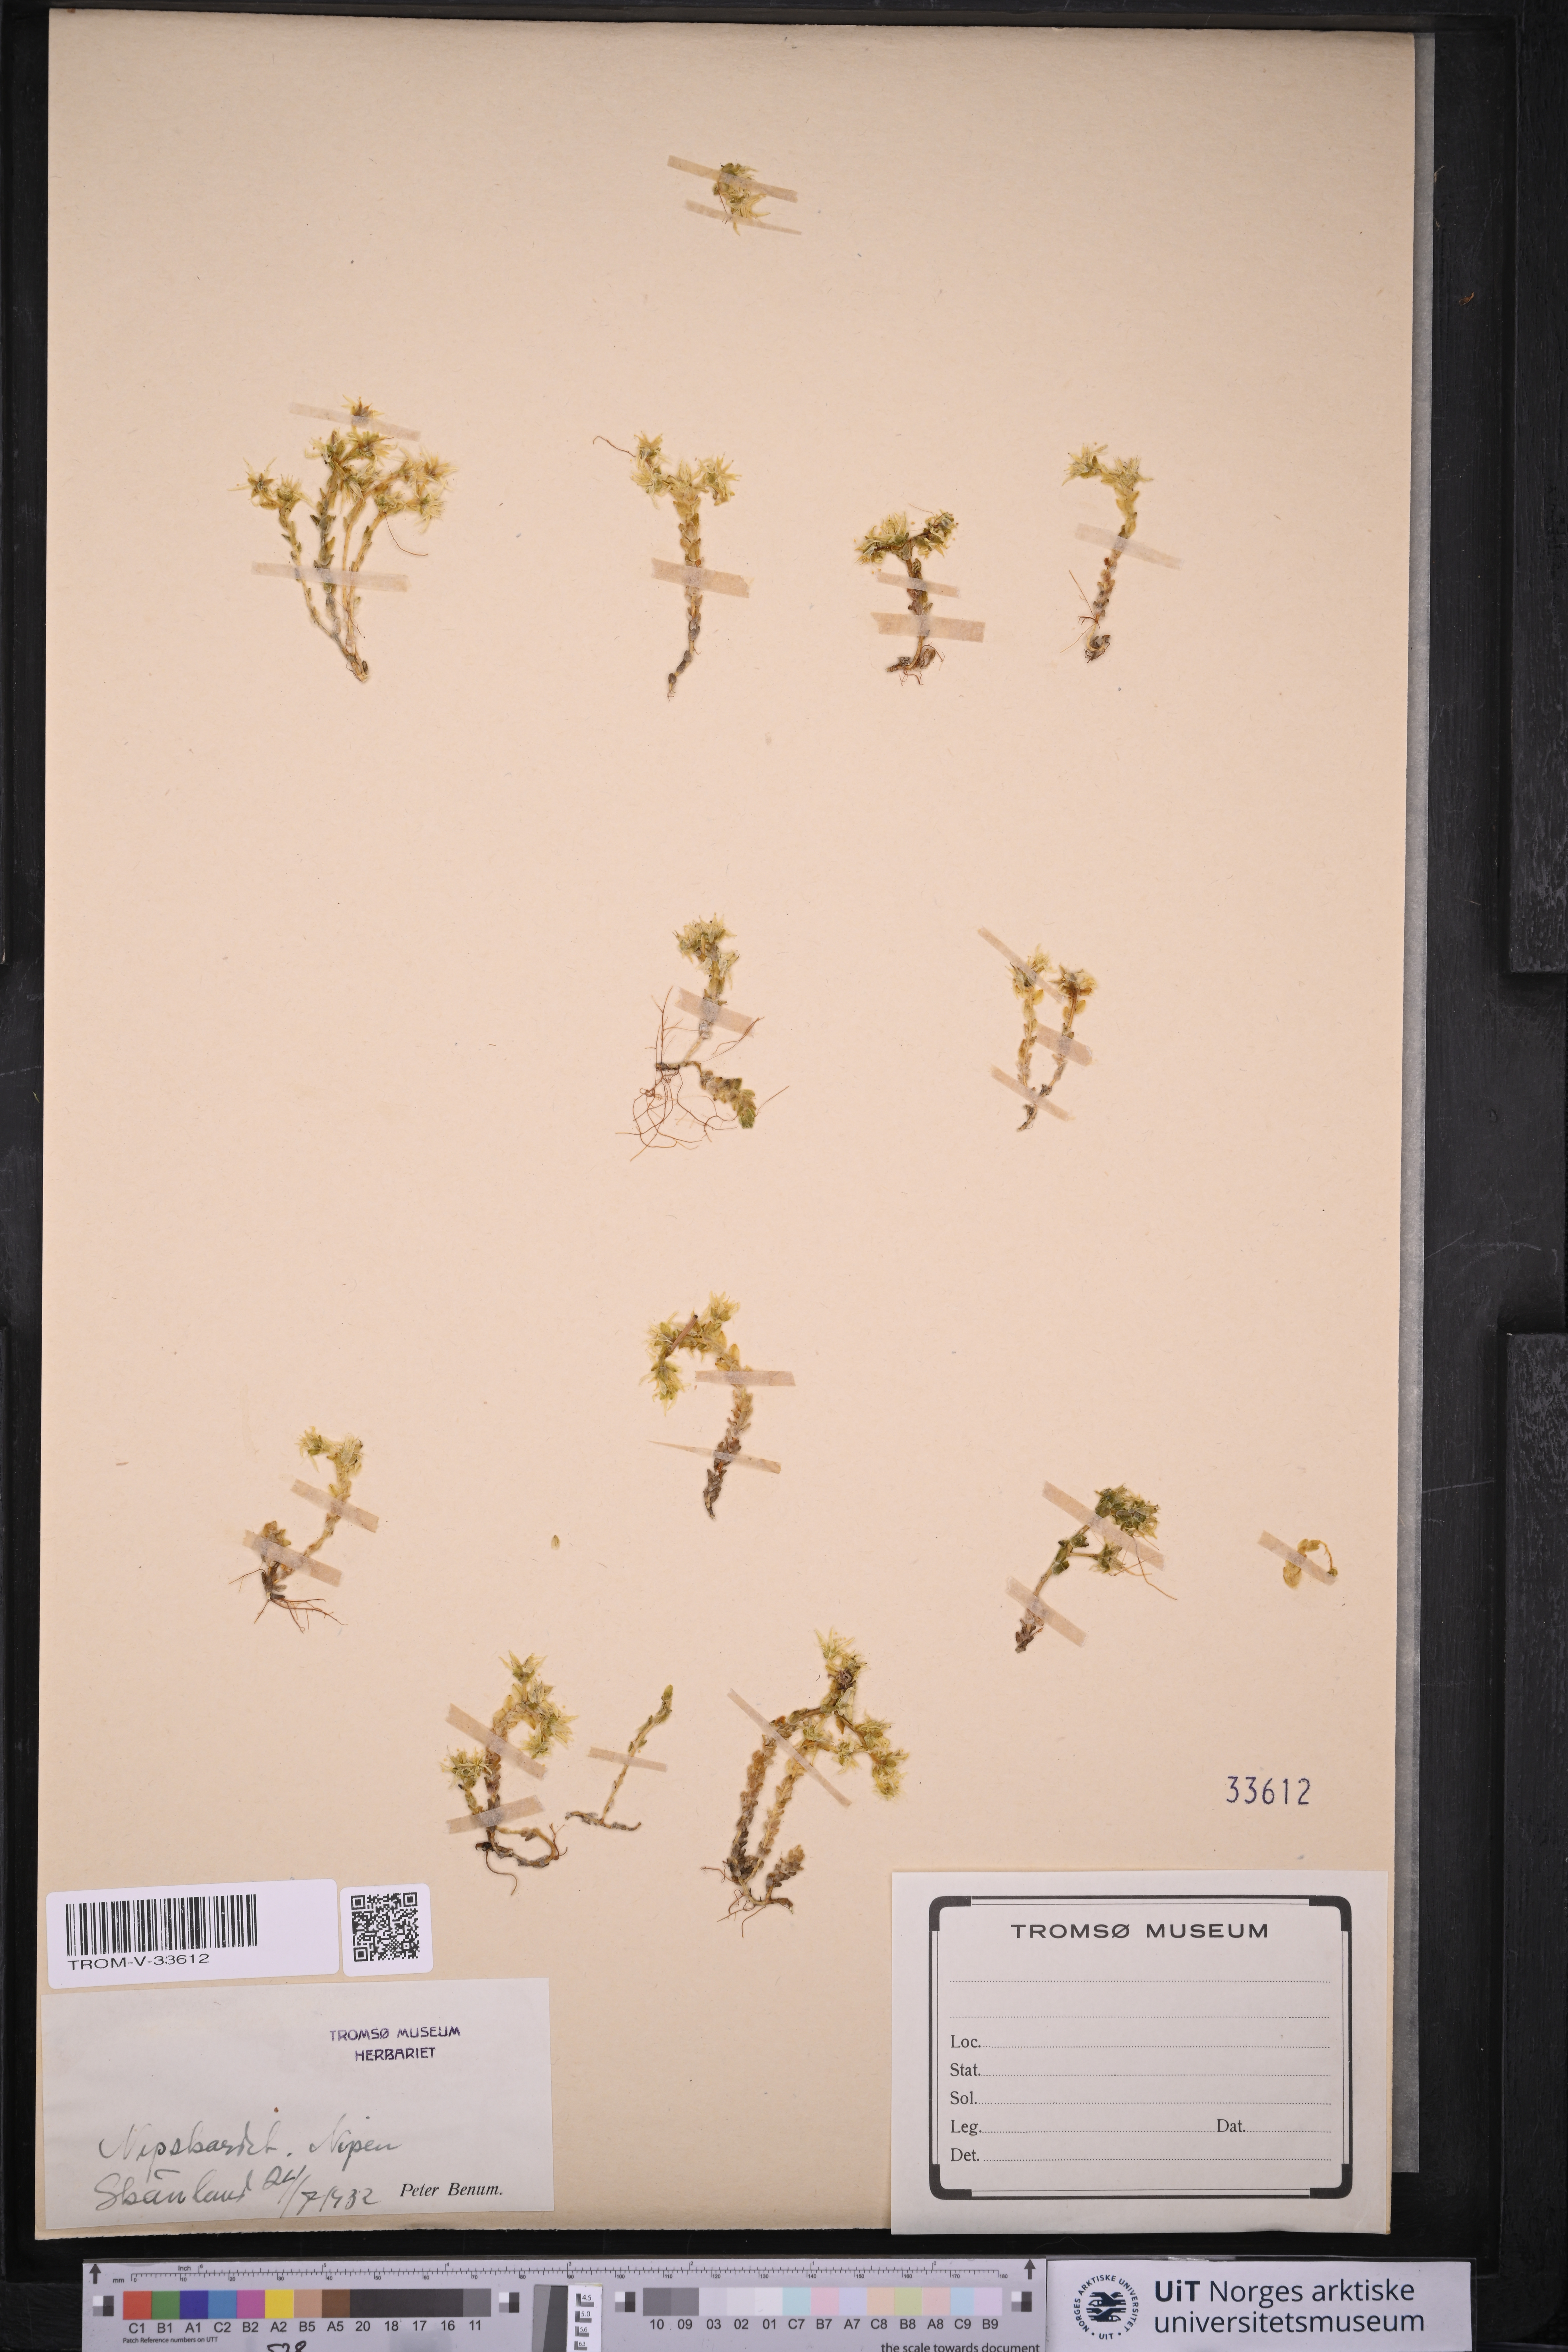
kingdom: Plantae
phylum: Tracheophyta
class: Magnoliopsida
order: Saxifragales
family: Crassulaceae
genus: Sedum
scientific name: Sedum acre
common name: Biting stonecrop
